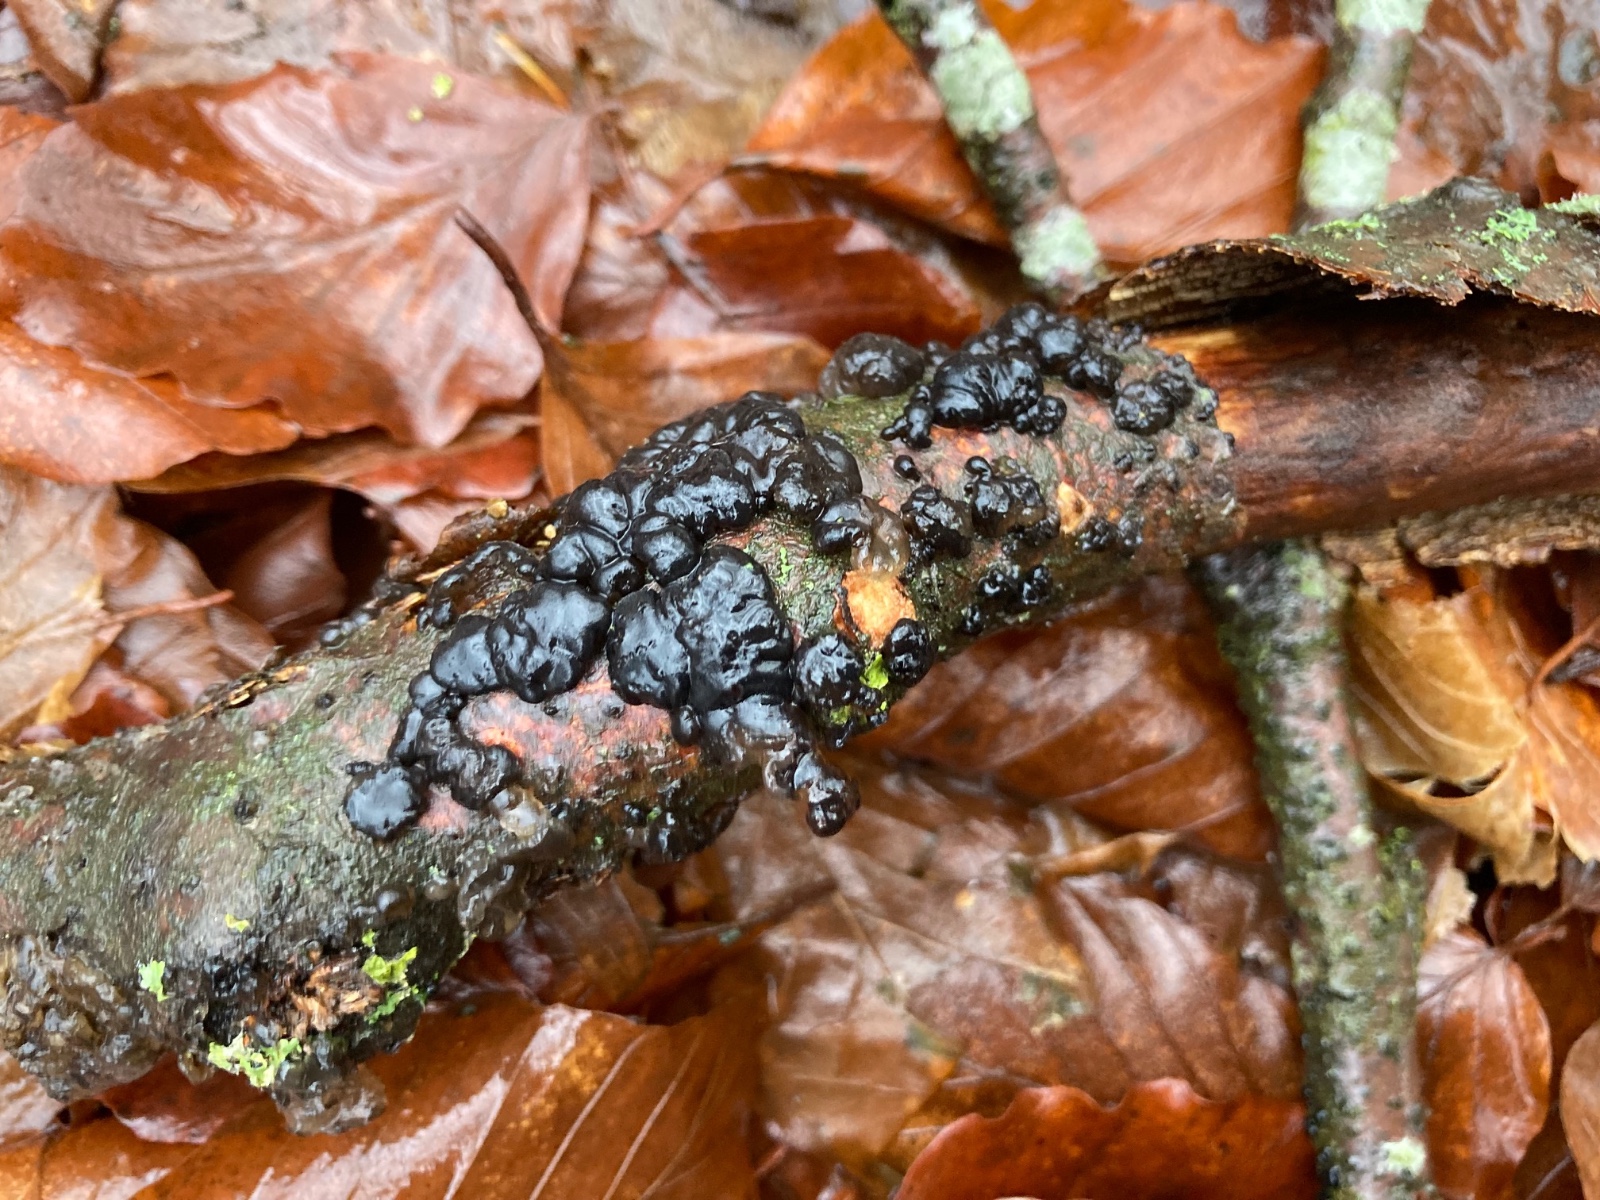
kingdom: Fungi
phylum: Basidiomycota
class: Agaricomycetes
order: Auriculariales
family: Auriculariaceae
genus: Exidia
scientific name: Exidia nigricans
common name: almindelig bævretop
